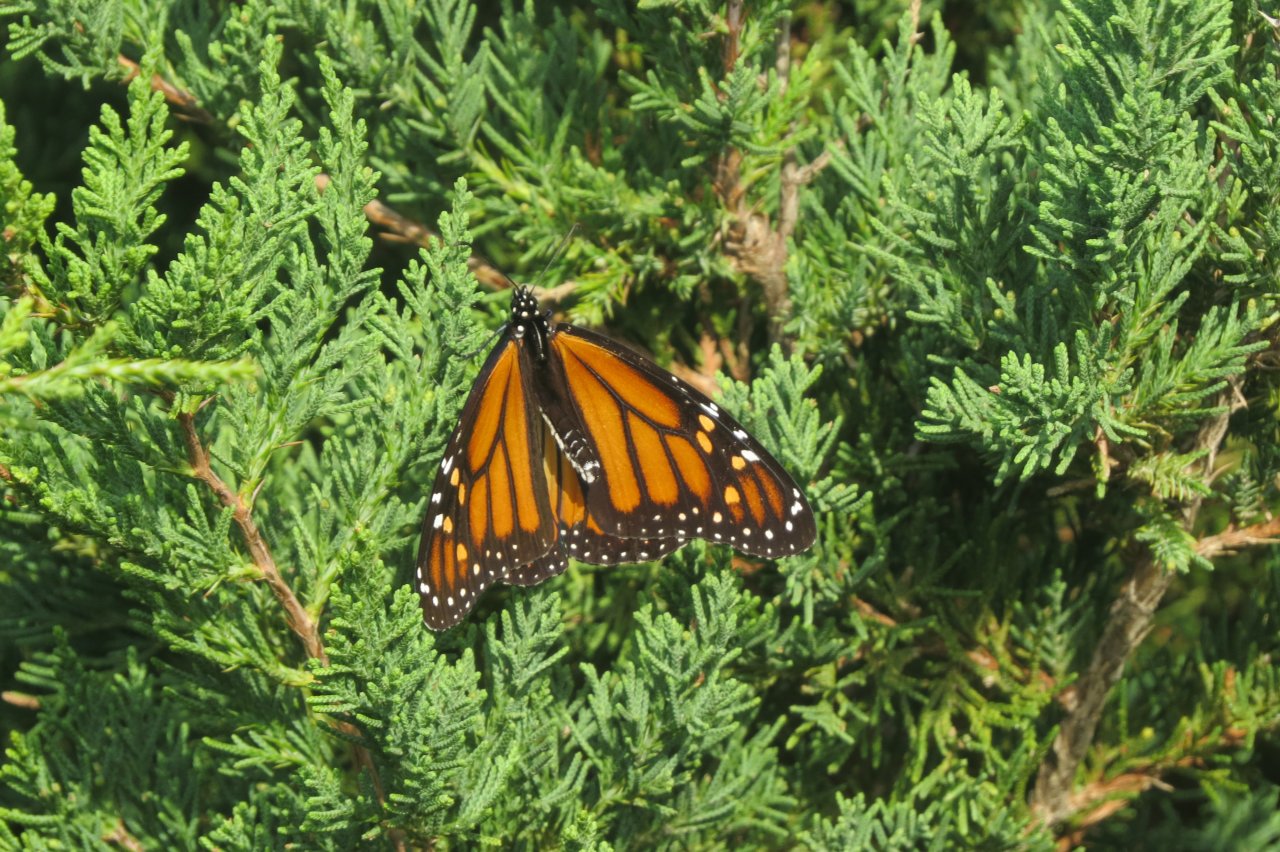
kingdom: Animalia
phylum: Arthropoda
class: Insecta
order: Lepidoptera
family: Nymphalidae
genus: Danaus
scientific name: Danaus plexippus
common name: Monarch
